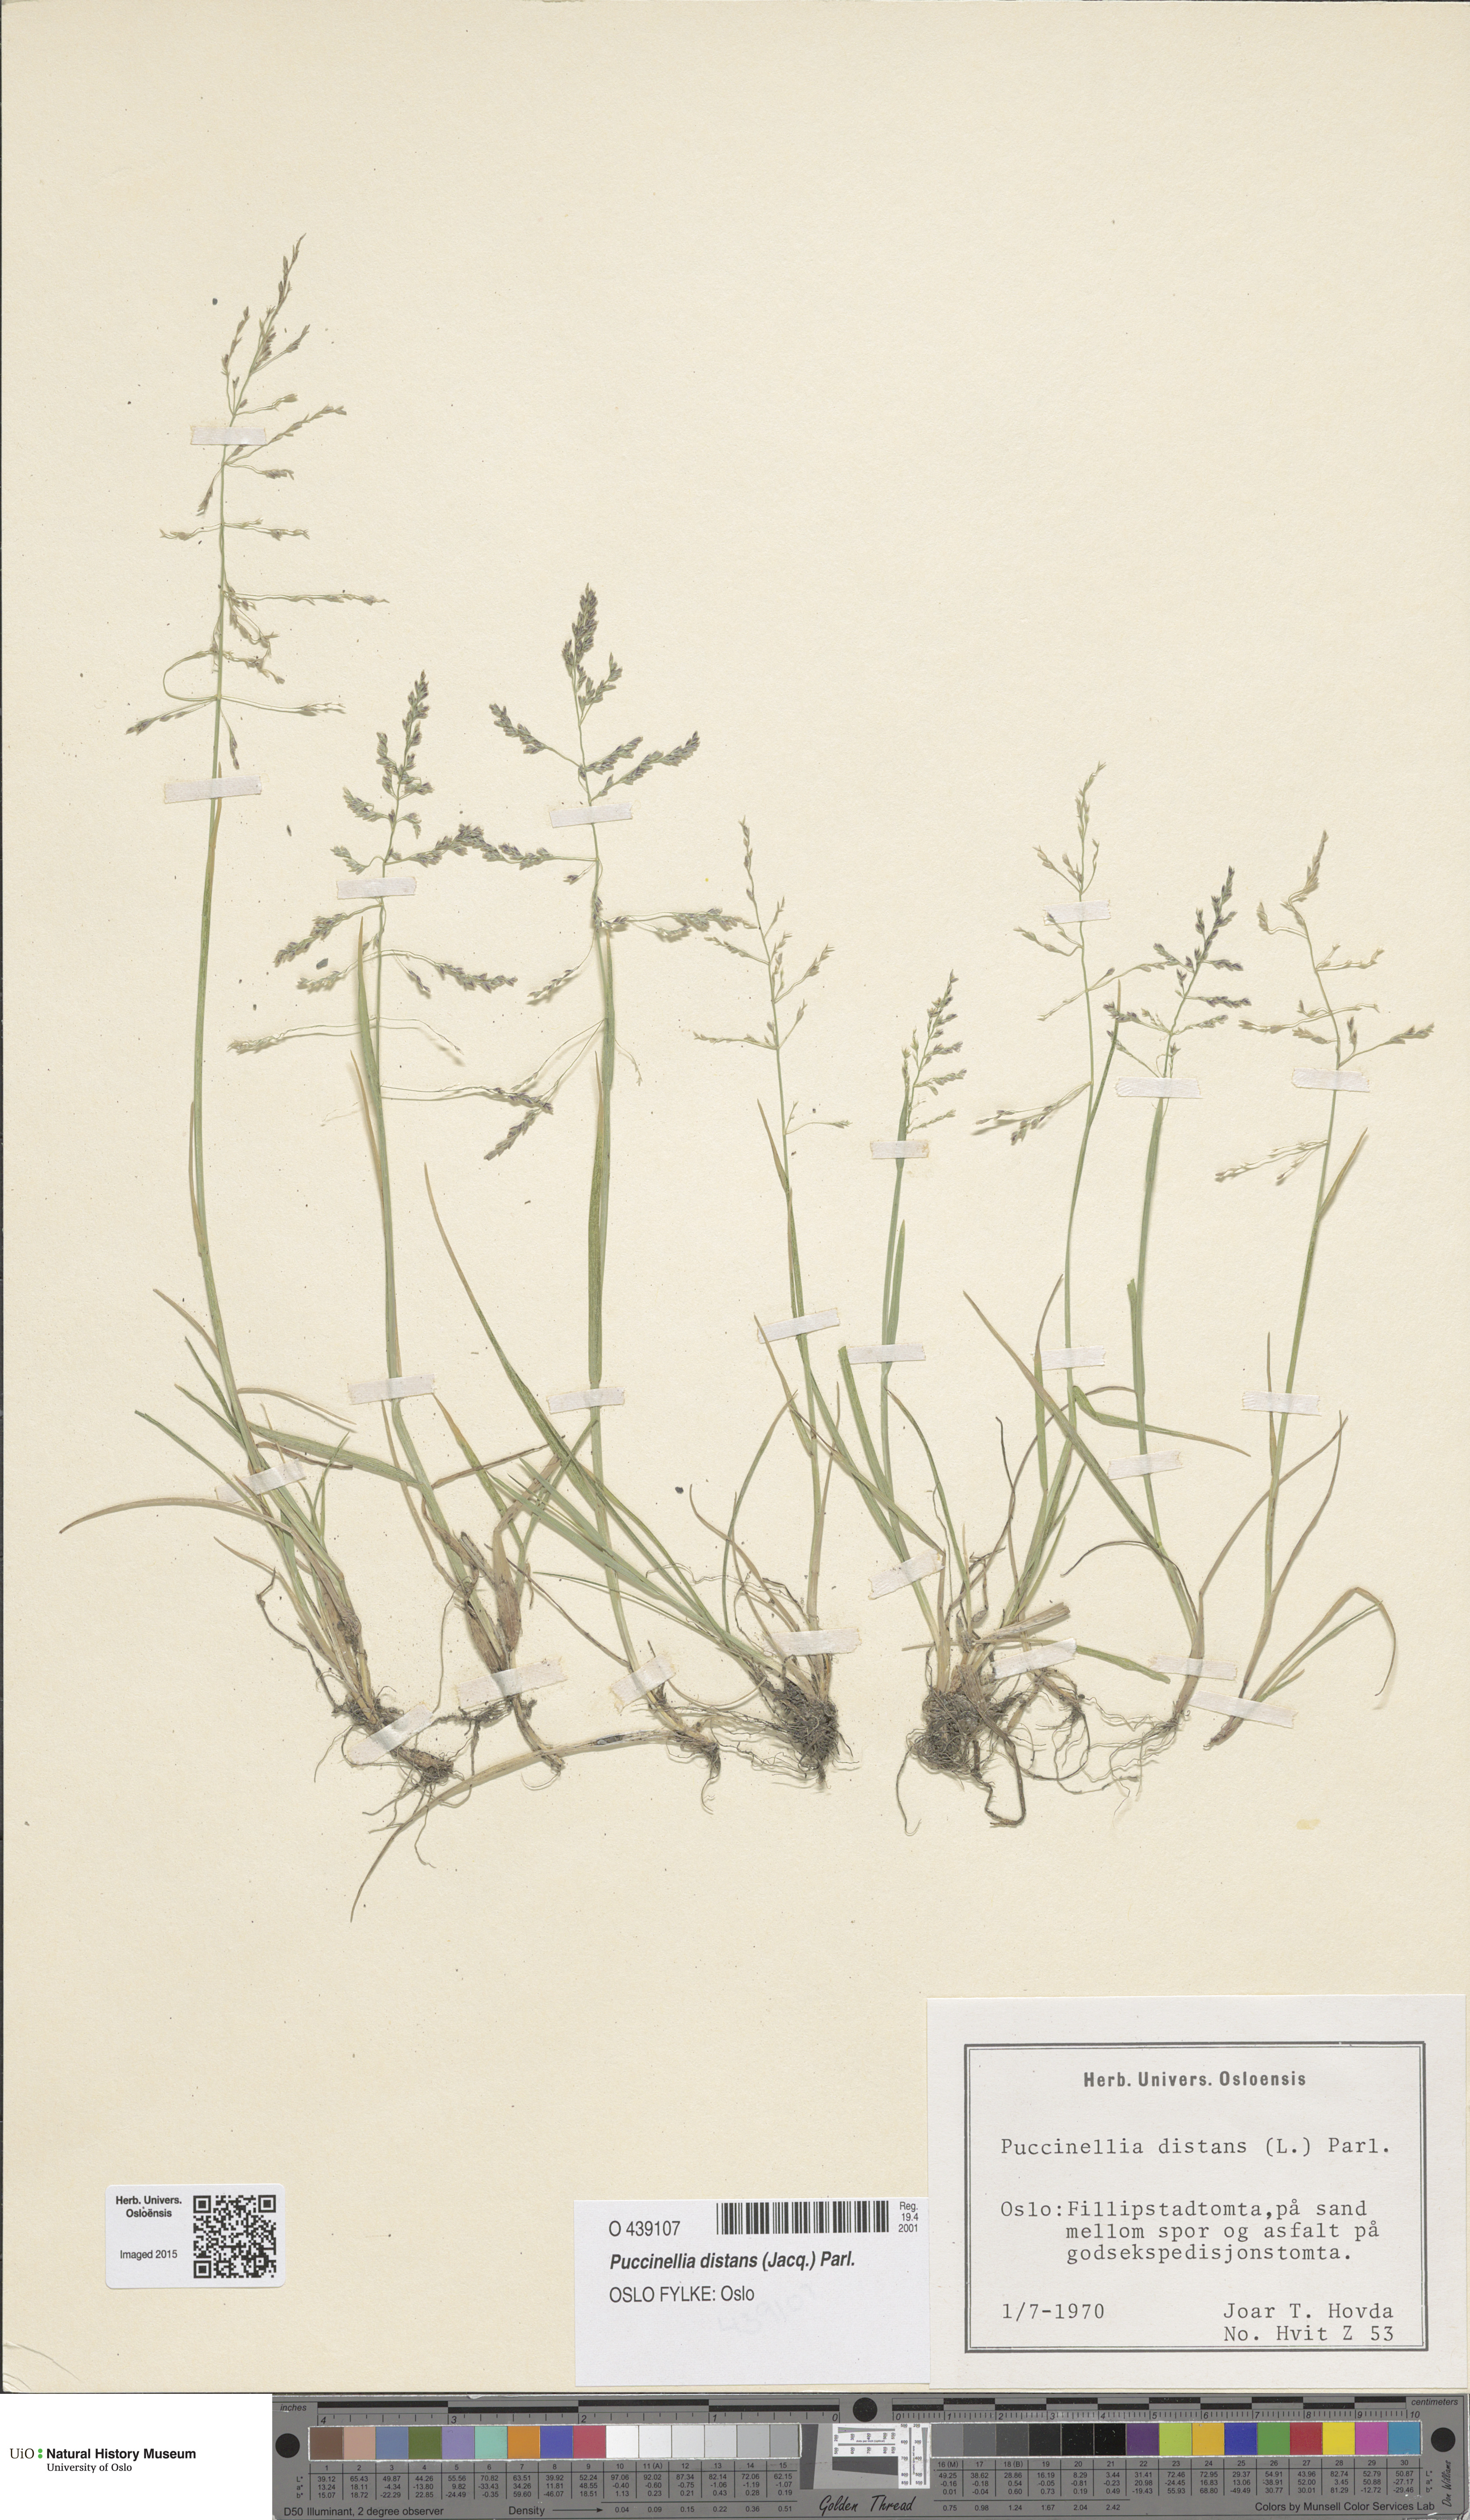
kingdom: Plantae
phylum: Tracheophyta
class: Liliopsida
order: Poales
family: Poaceae
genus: Puccinellia
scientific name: Puccinellia distans
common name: Weeping alkaligrass
